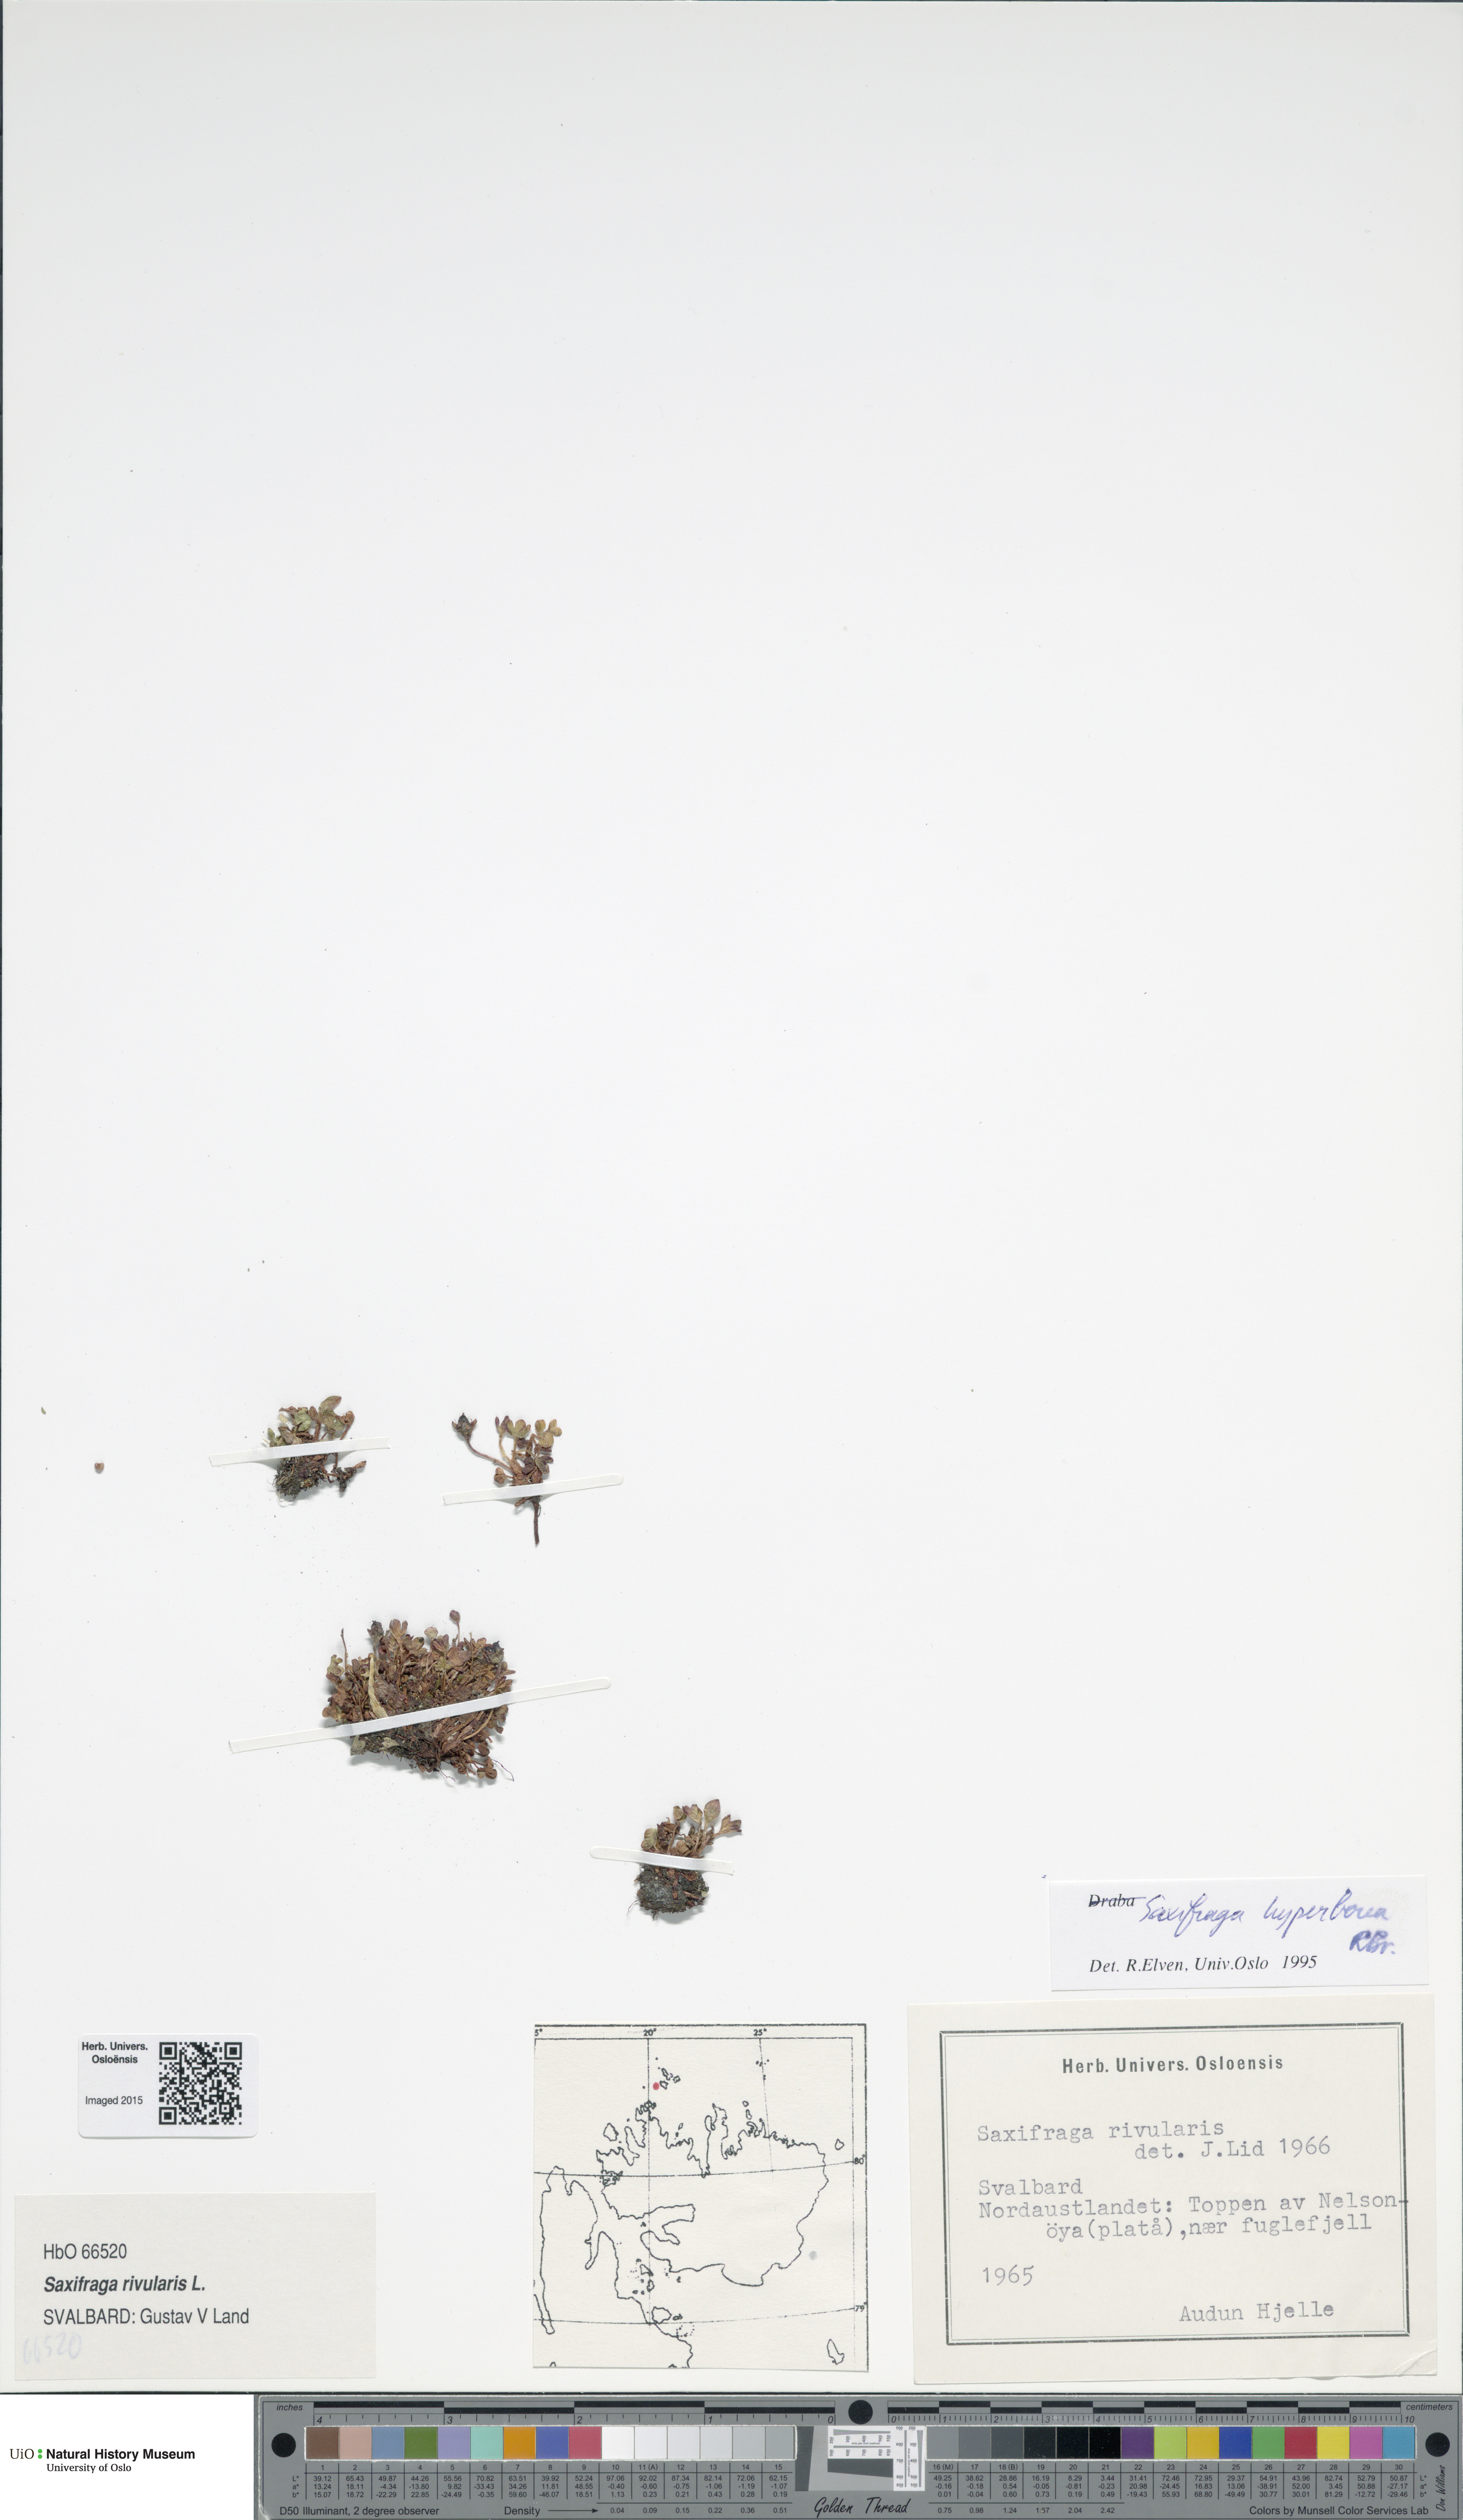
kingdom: Plantae
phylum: Tracheophyta
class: Magnoliopsida
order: Saxifragales
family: Saxifragaceae
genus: Saxifraga
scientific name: Saxifraga hyperborea
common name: Arctic saxifrage
